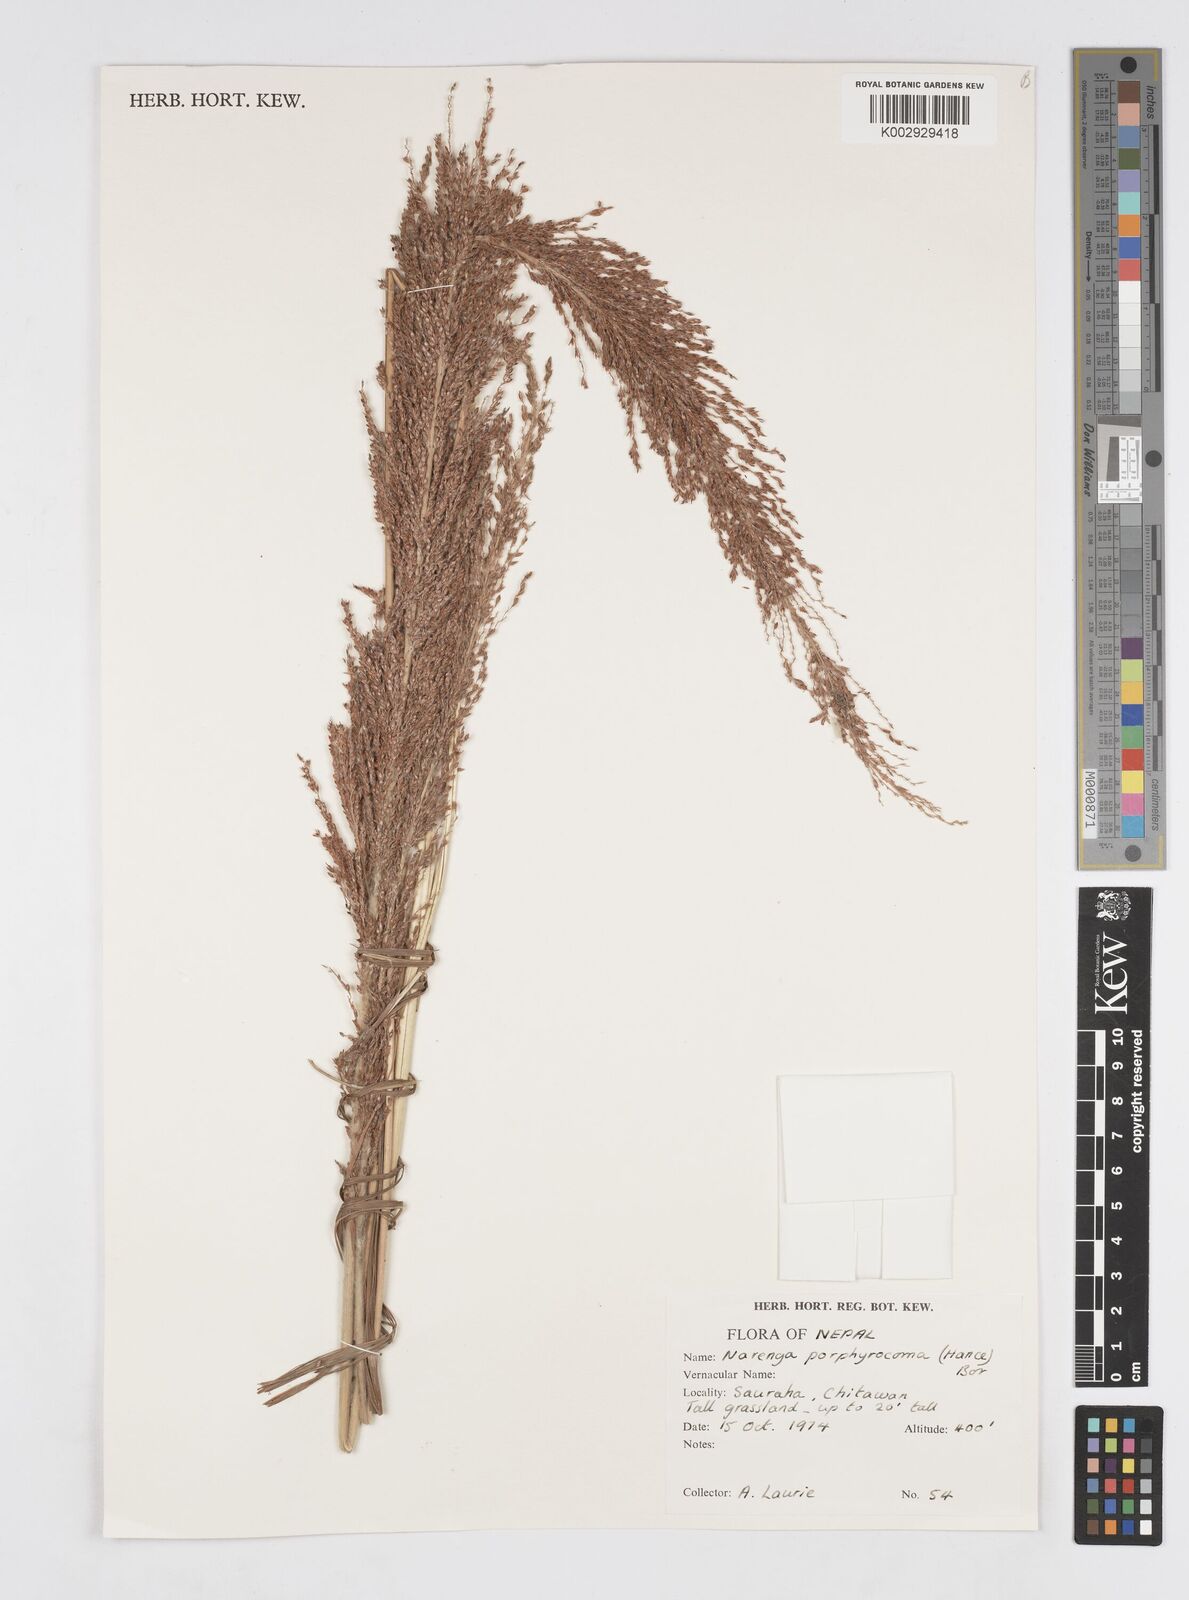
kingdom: Plantae
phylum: Tracheophyta
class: Liliopsida
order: Poales
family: Poaceae
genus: Narenga
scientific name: Narenga porphyrocoma
